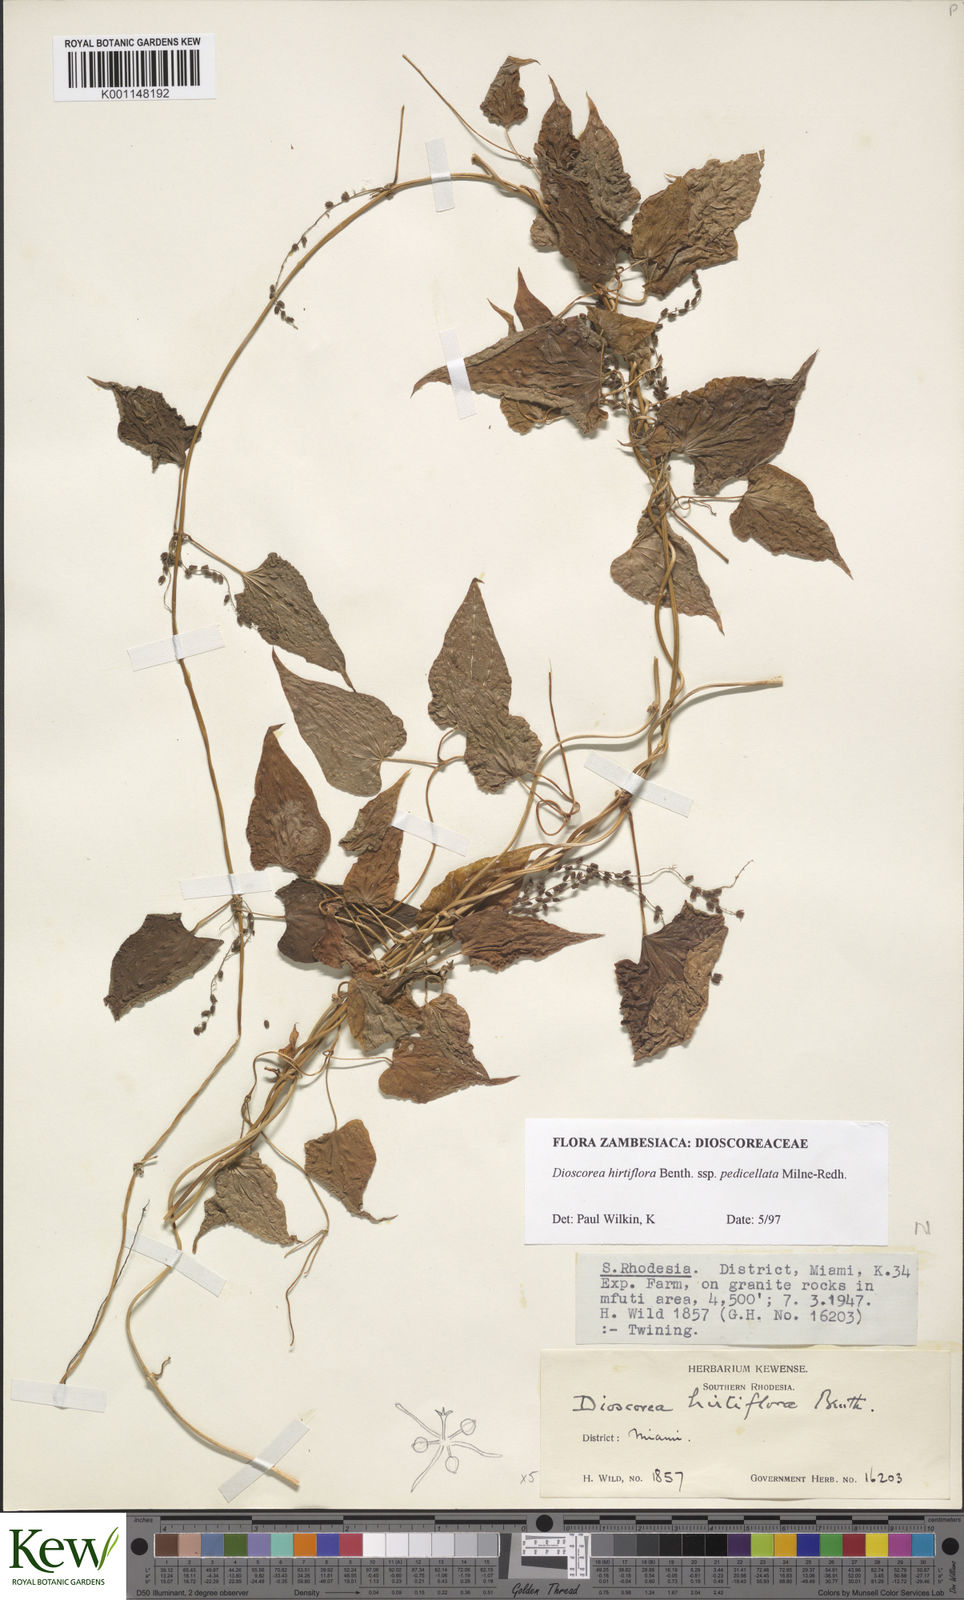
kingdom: Plantae
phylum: Tracheophyta
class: Liliopsida
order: Dioscoreales
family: Dioscoreaceae
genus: Dioscorea
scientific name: Dioscorea hirtiflora
